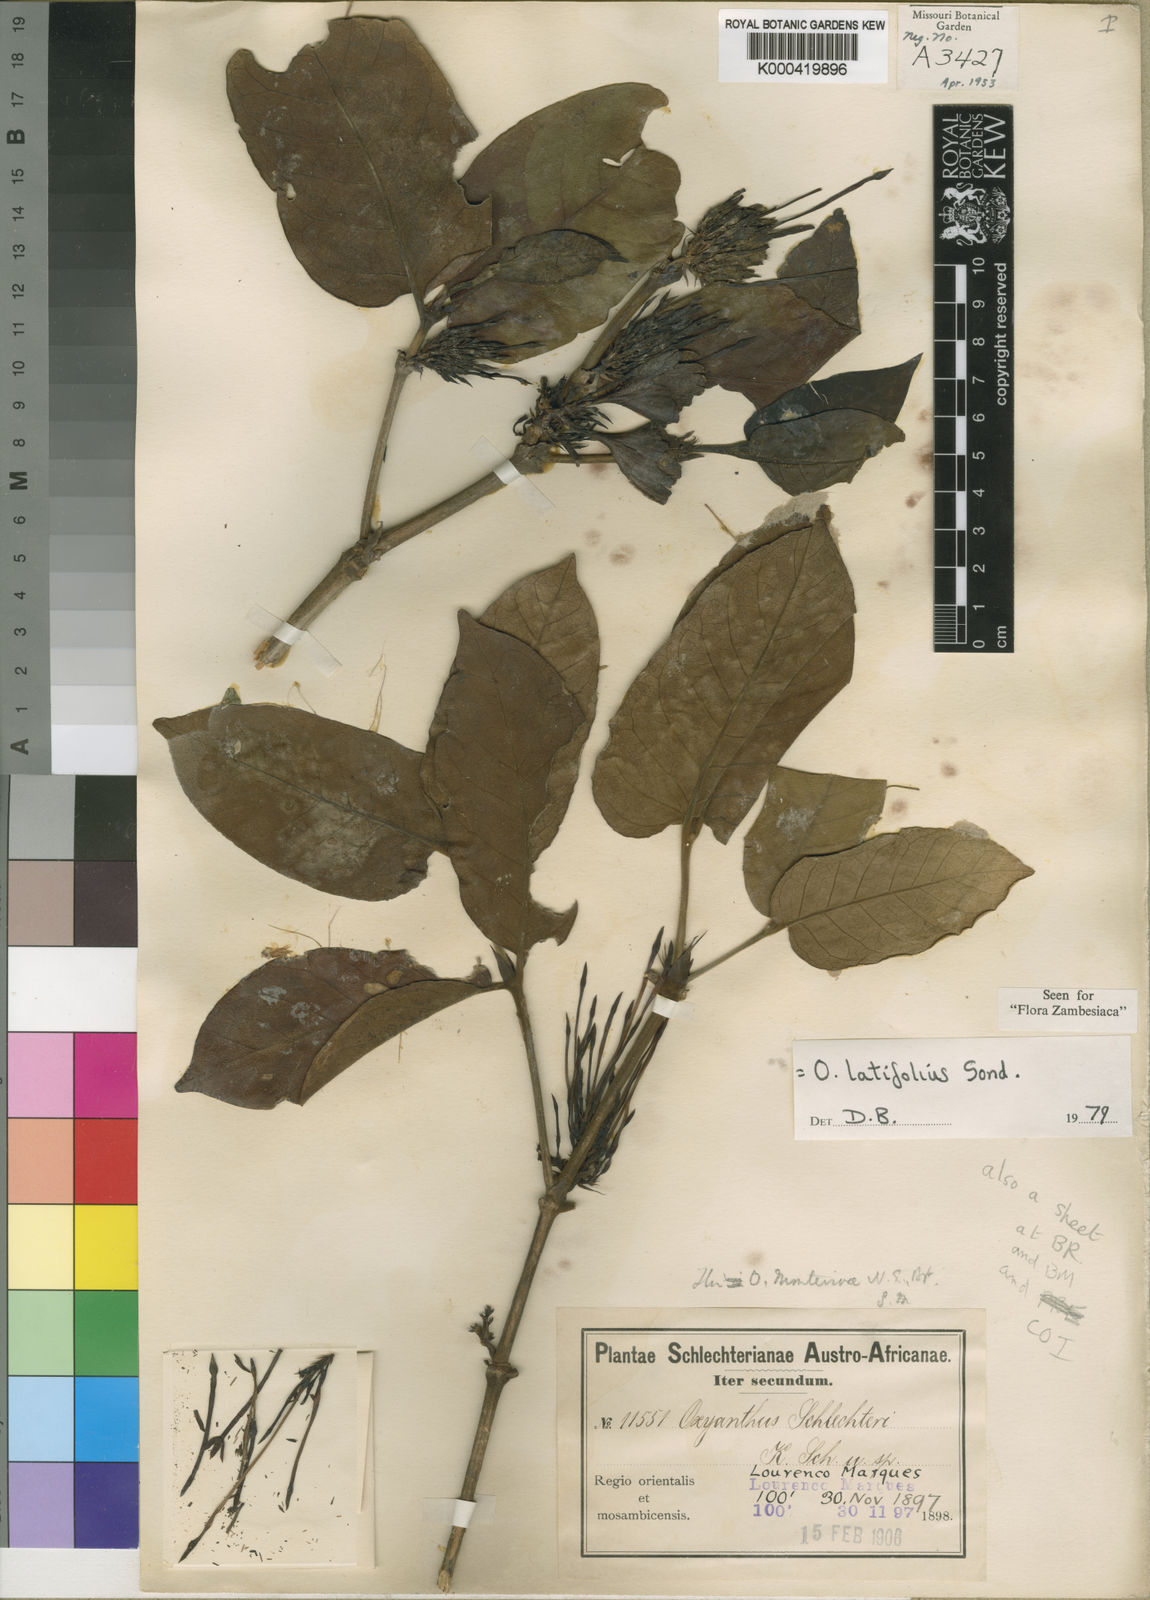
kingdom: Plantae
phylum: Tracheophyta
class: Magnoliopsida
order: Gentianales
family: Rubiaceae
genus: Oxyanthus
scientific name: Oxyanthus latifolius
